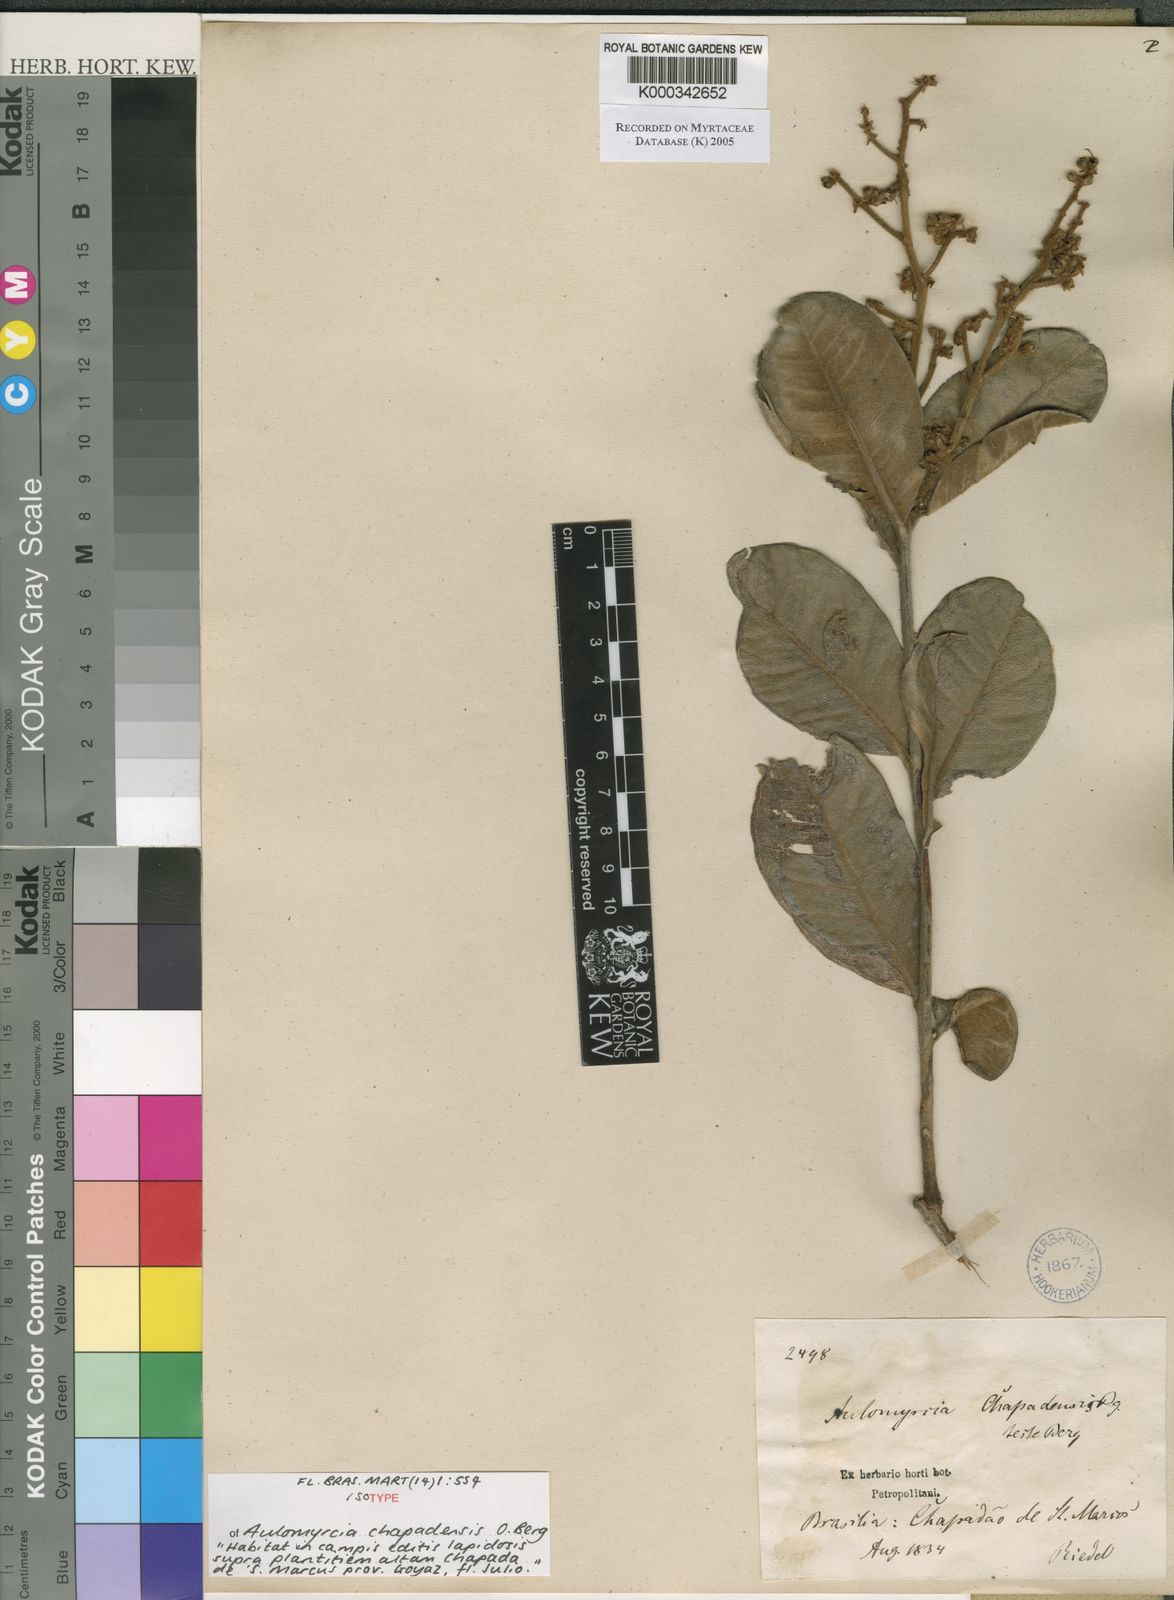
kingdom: Plantae
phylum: Tracheophyta
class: Magnoliopsida
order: Myrtales
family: Myrtaceae
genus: Myrcia
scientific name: Myrcia vestita
